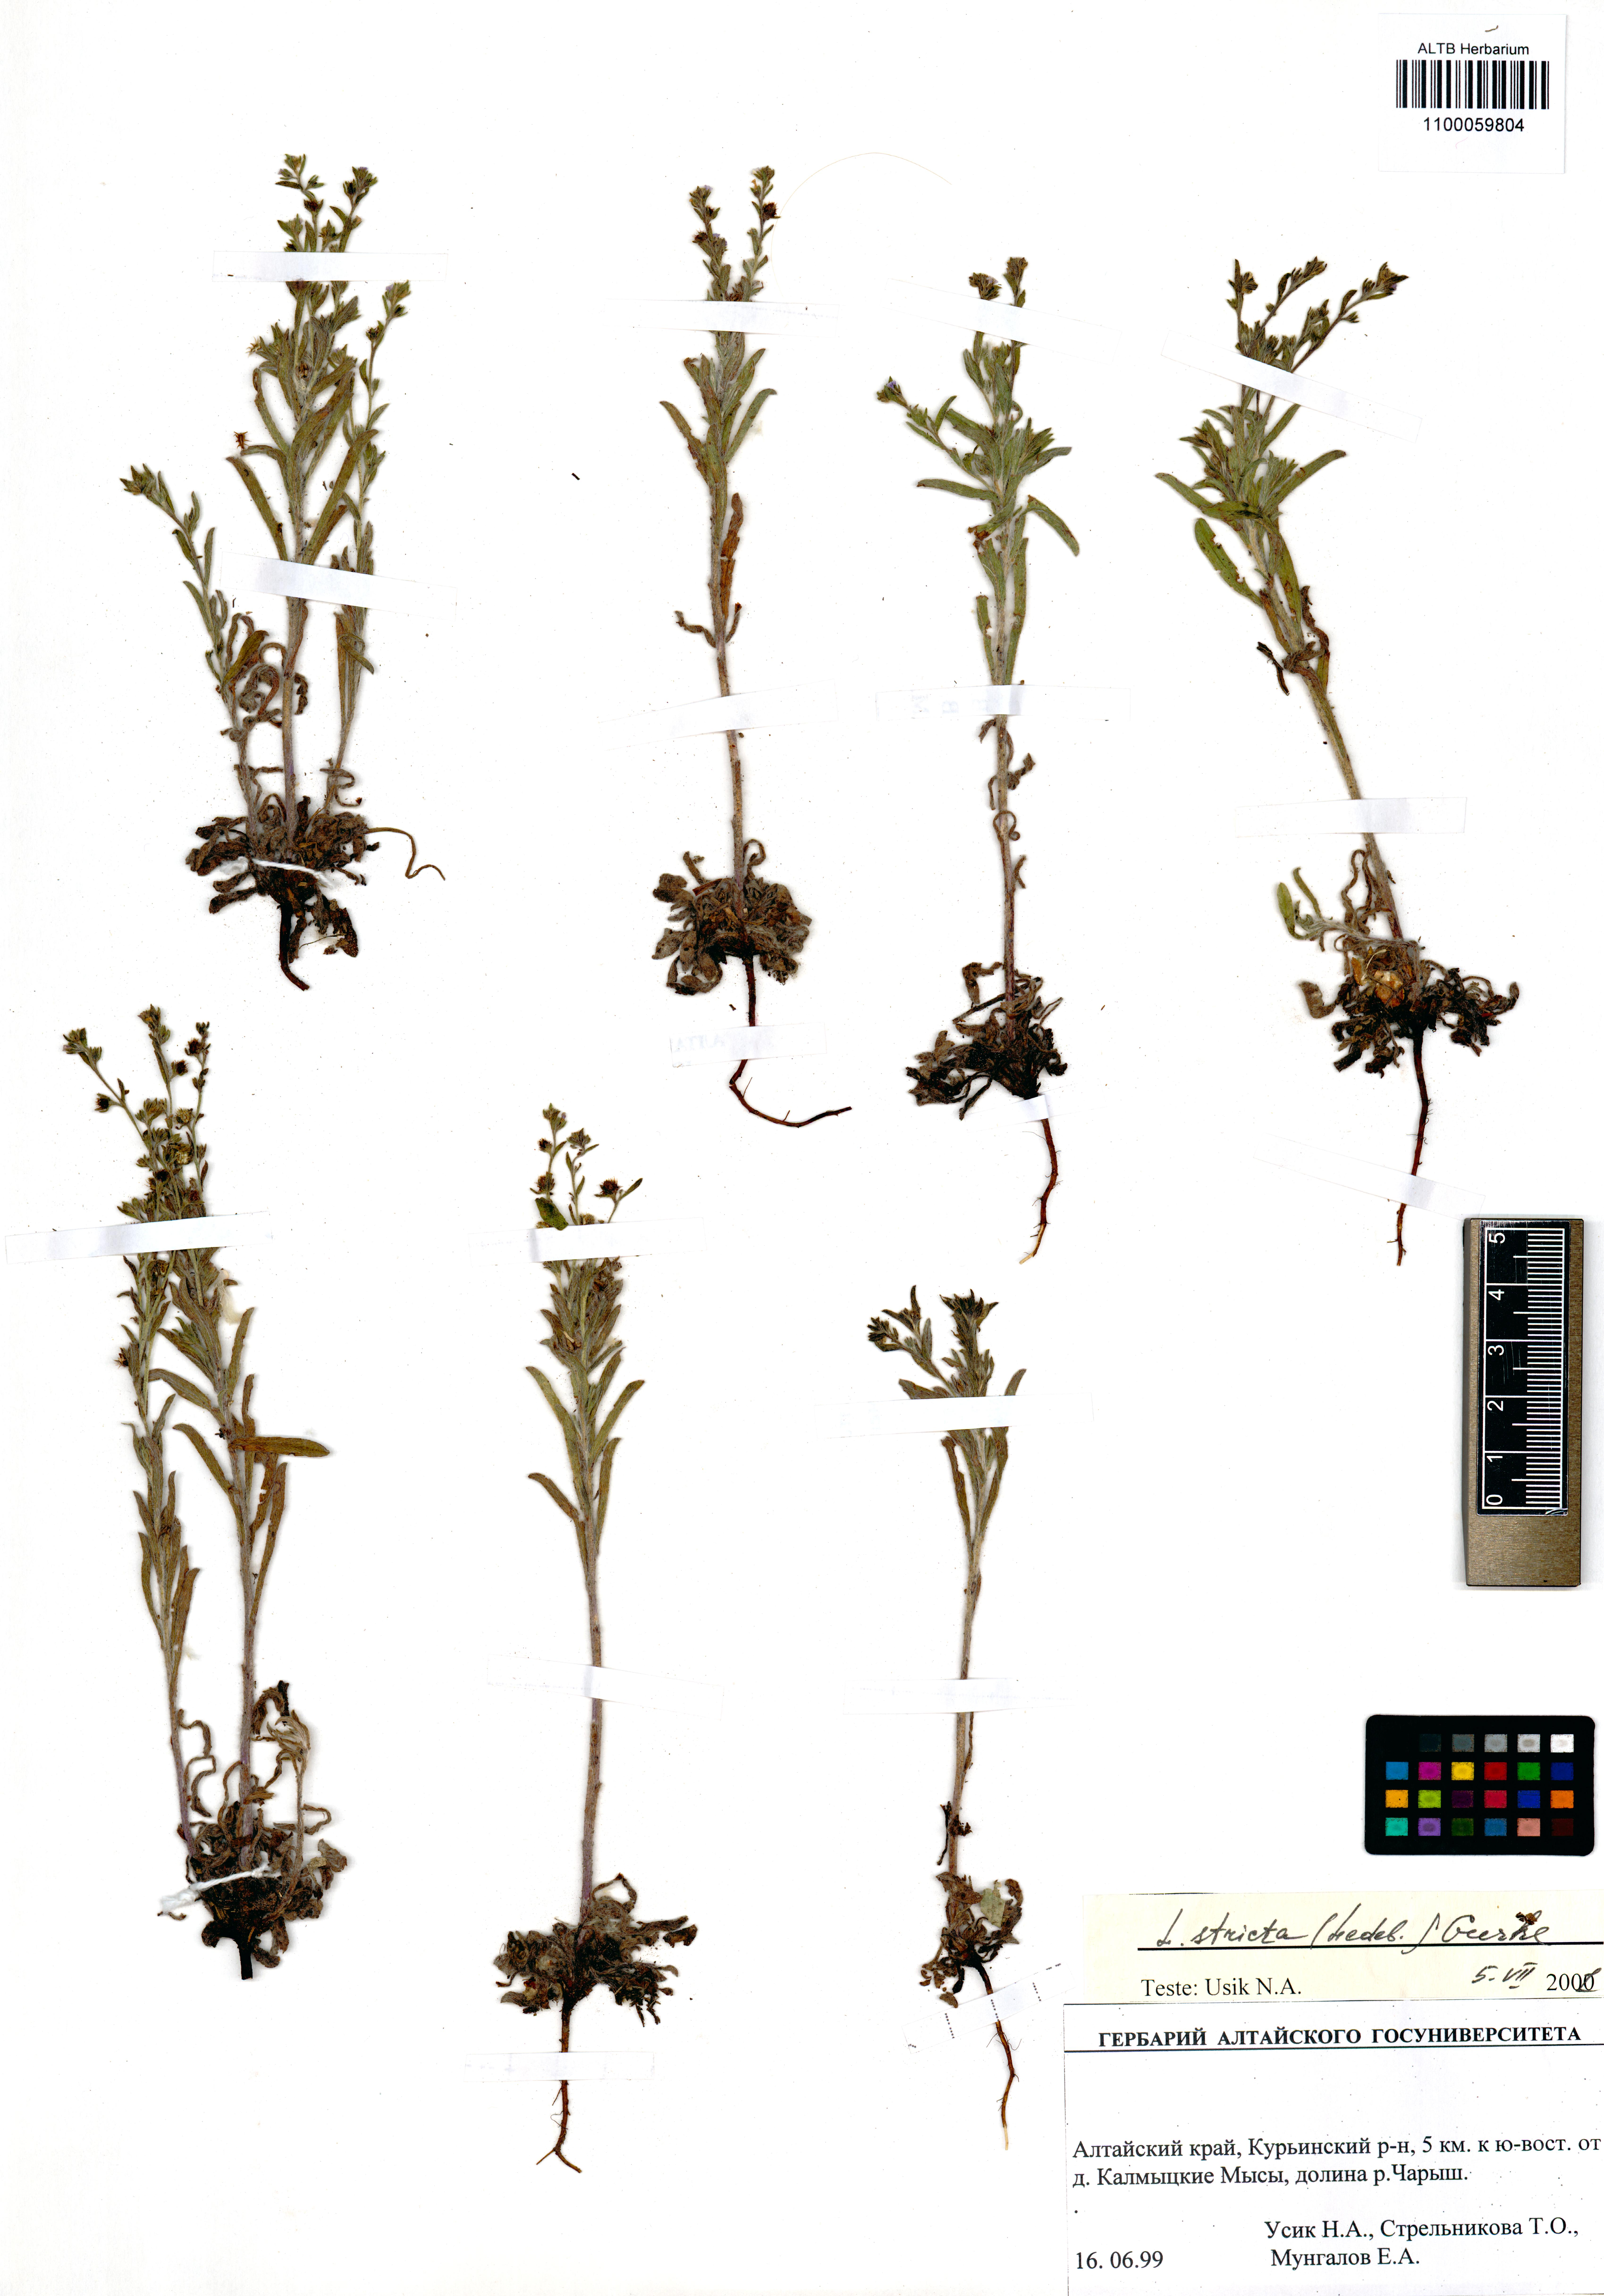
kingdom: Plantae
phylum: Tracheophyta
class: Magnoliopsida
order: Boraginales
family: Boraginaceae
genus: Lappula
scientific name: Lappula stricta
